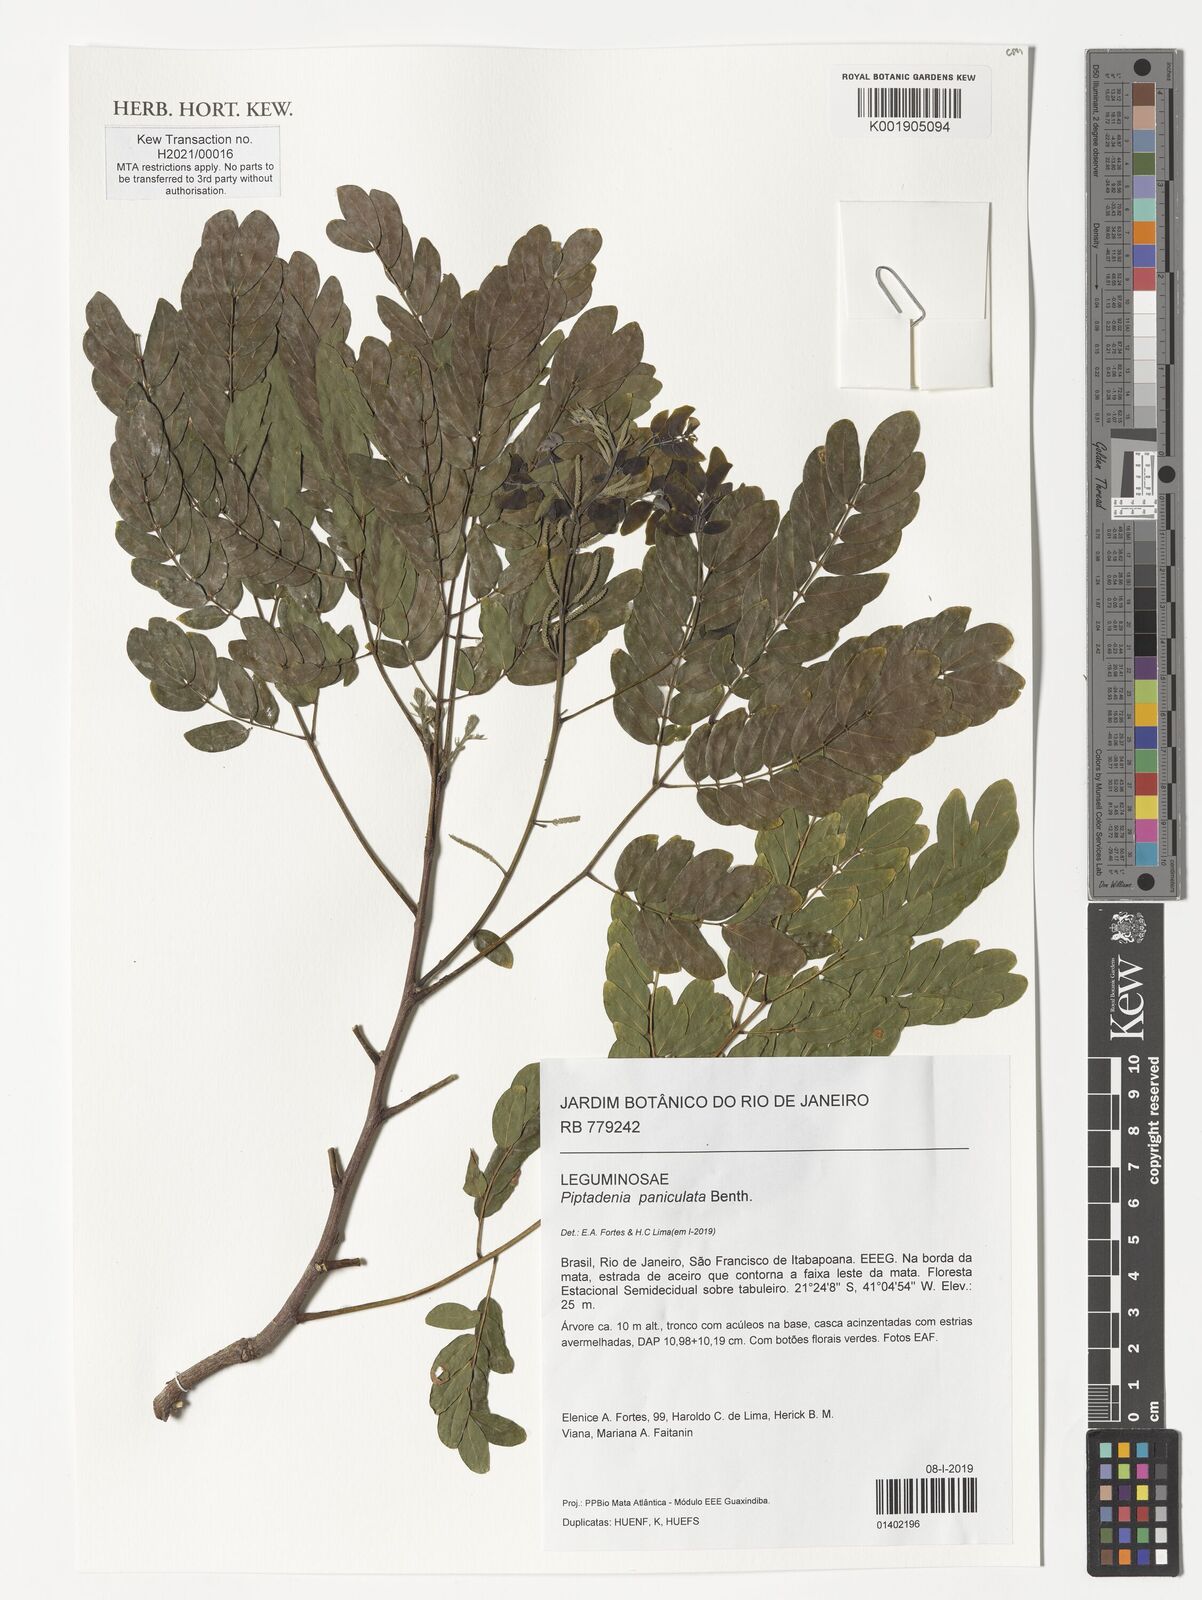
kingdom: Plantae
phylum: Tracheophyta
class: Magnoliopsida
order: Fabales
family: Fabaceae
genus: Piptadenia
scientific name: Piptadenia paniculata
